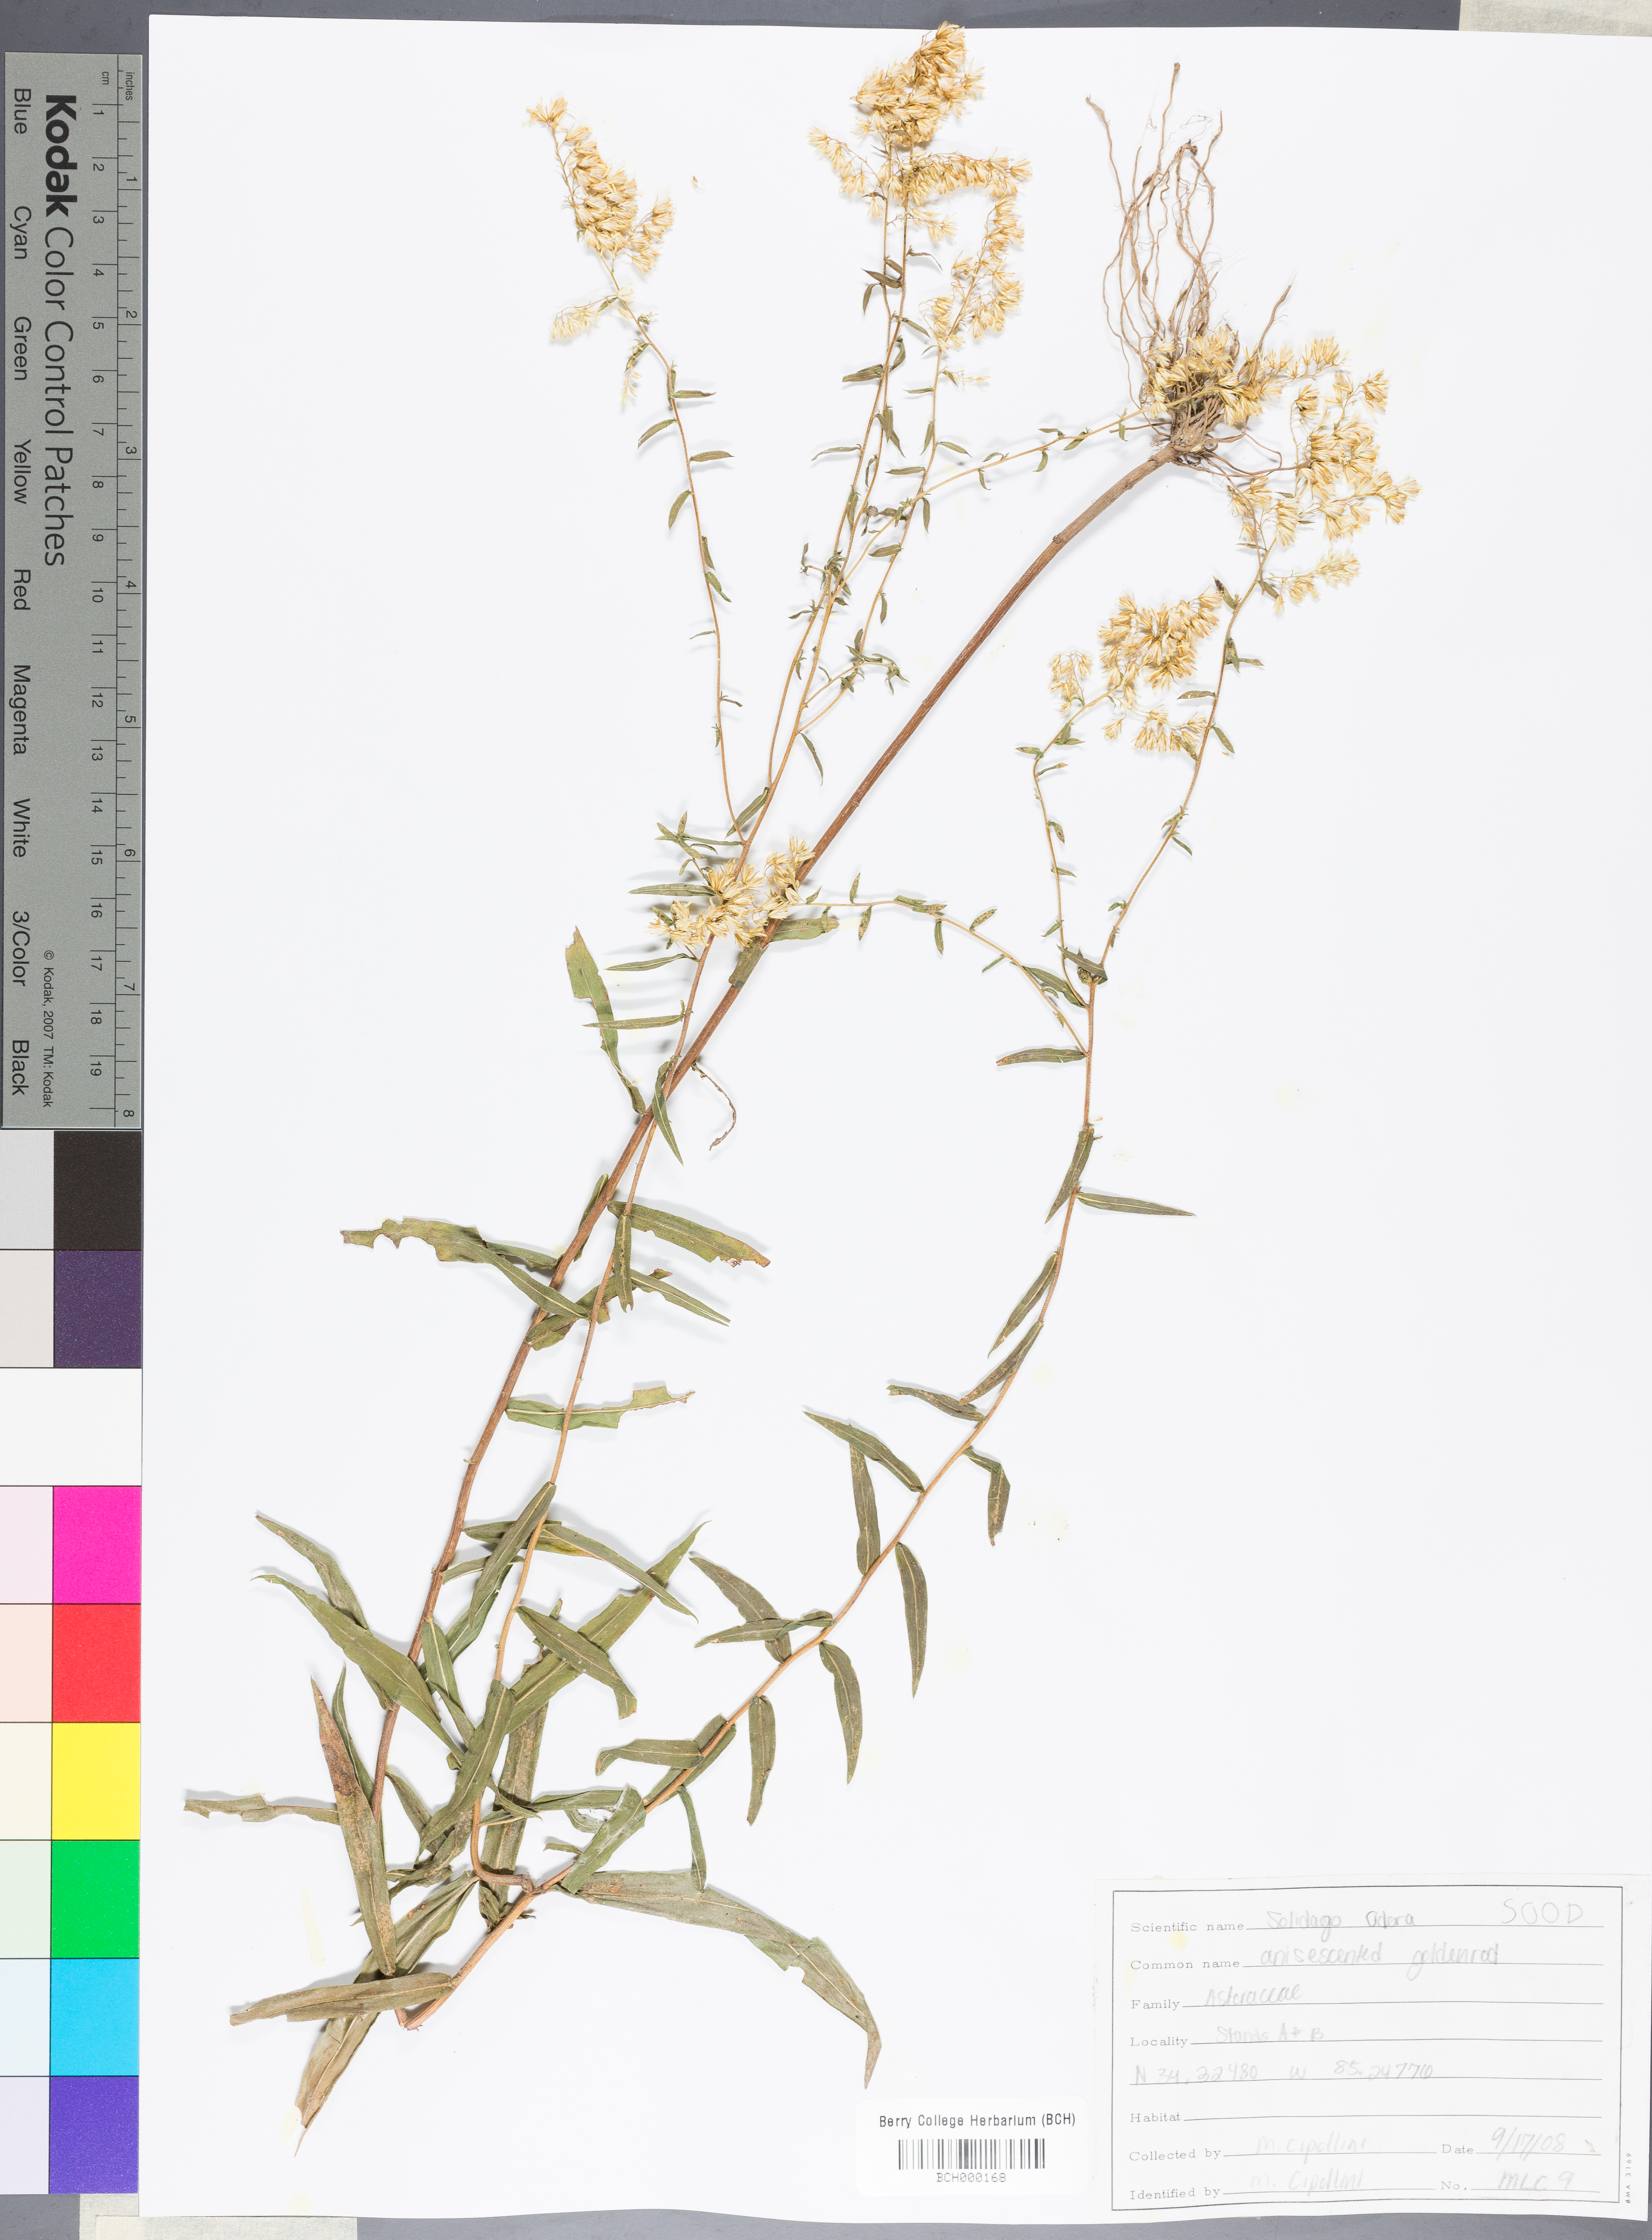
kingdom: Plantae
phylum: Tracheophyta
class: Magnoliopsida
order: Asterales
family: Asteraceae
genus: Solidago
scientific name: Solidago odora
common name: Anise-scented goldenrod
